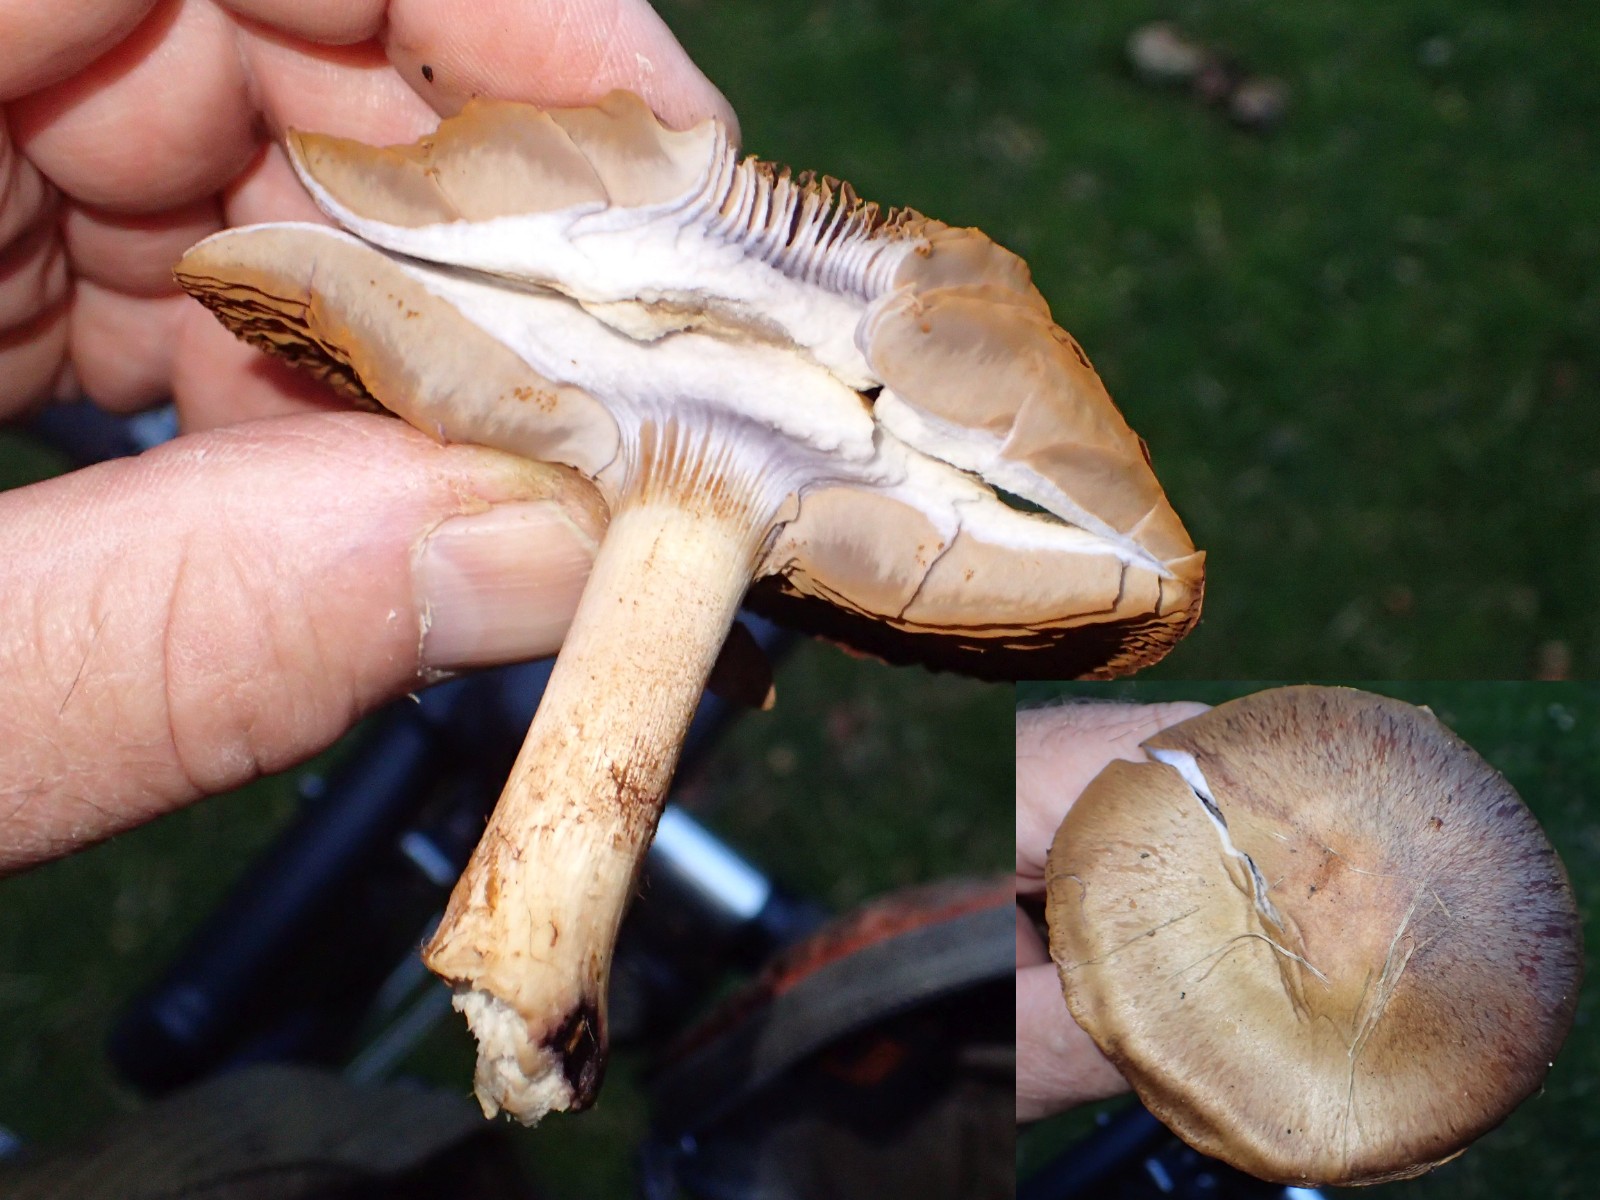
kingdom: Fungi
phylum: Basidiomycota
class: Agaricomycetes
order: Agaricales
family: Cortinariaceae
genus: Cortinarius
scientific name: Cortinarius
